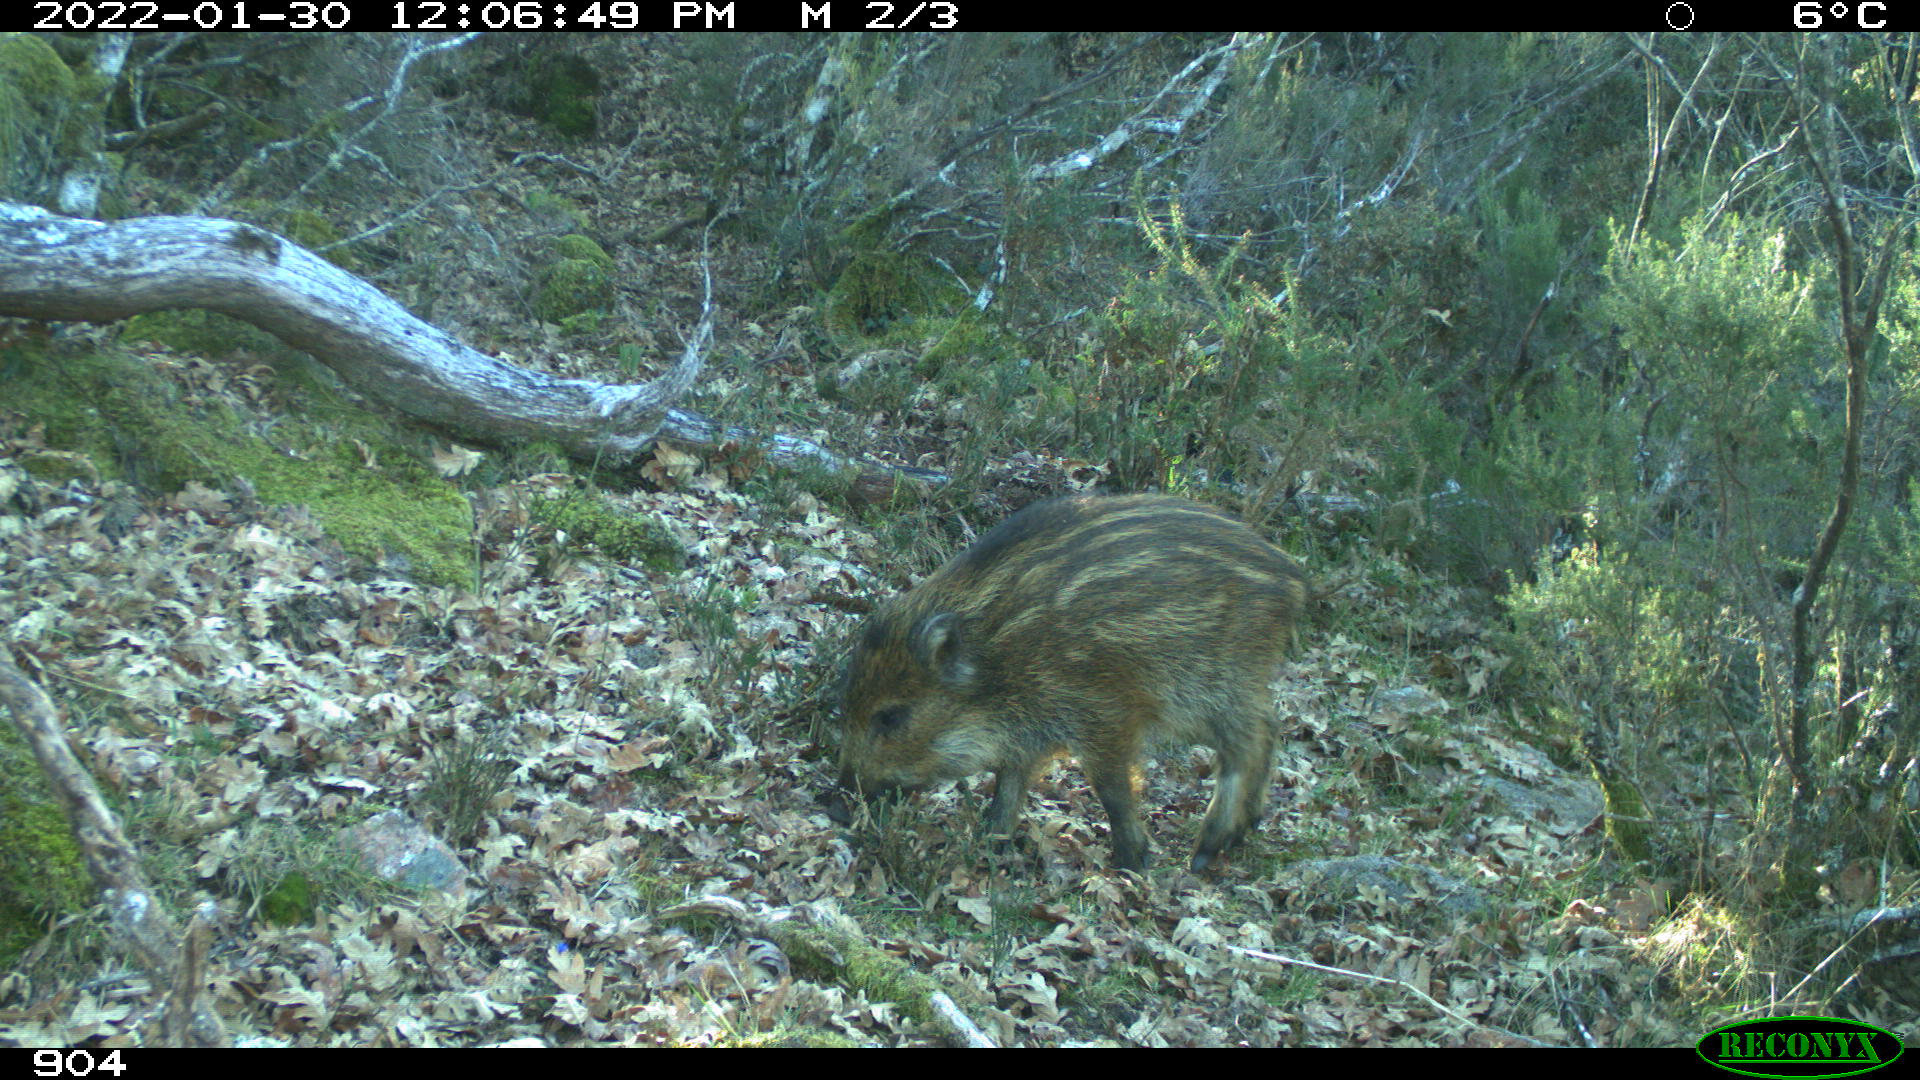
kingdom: Animalia
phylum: Chordata
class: Mammalia
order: Artiodactyla
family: Suidae
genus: Sus
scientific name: Sus scrofa
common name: Wild boar
